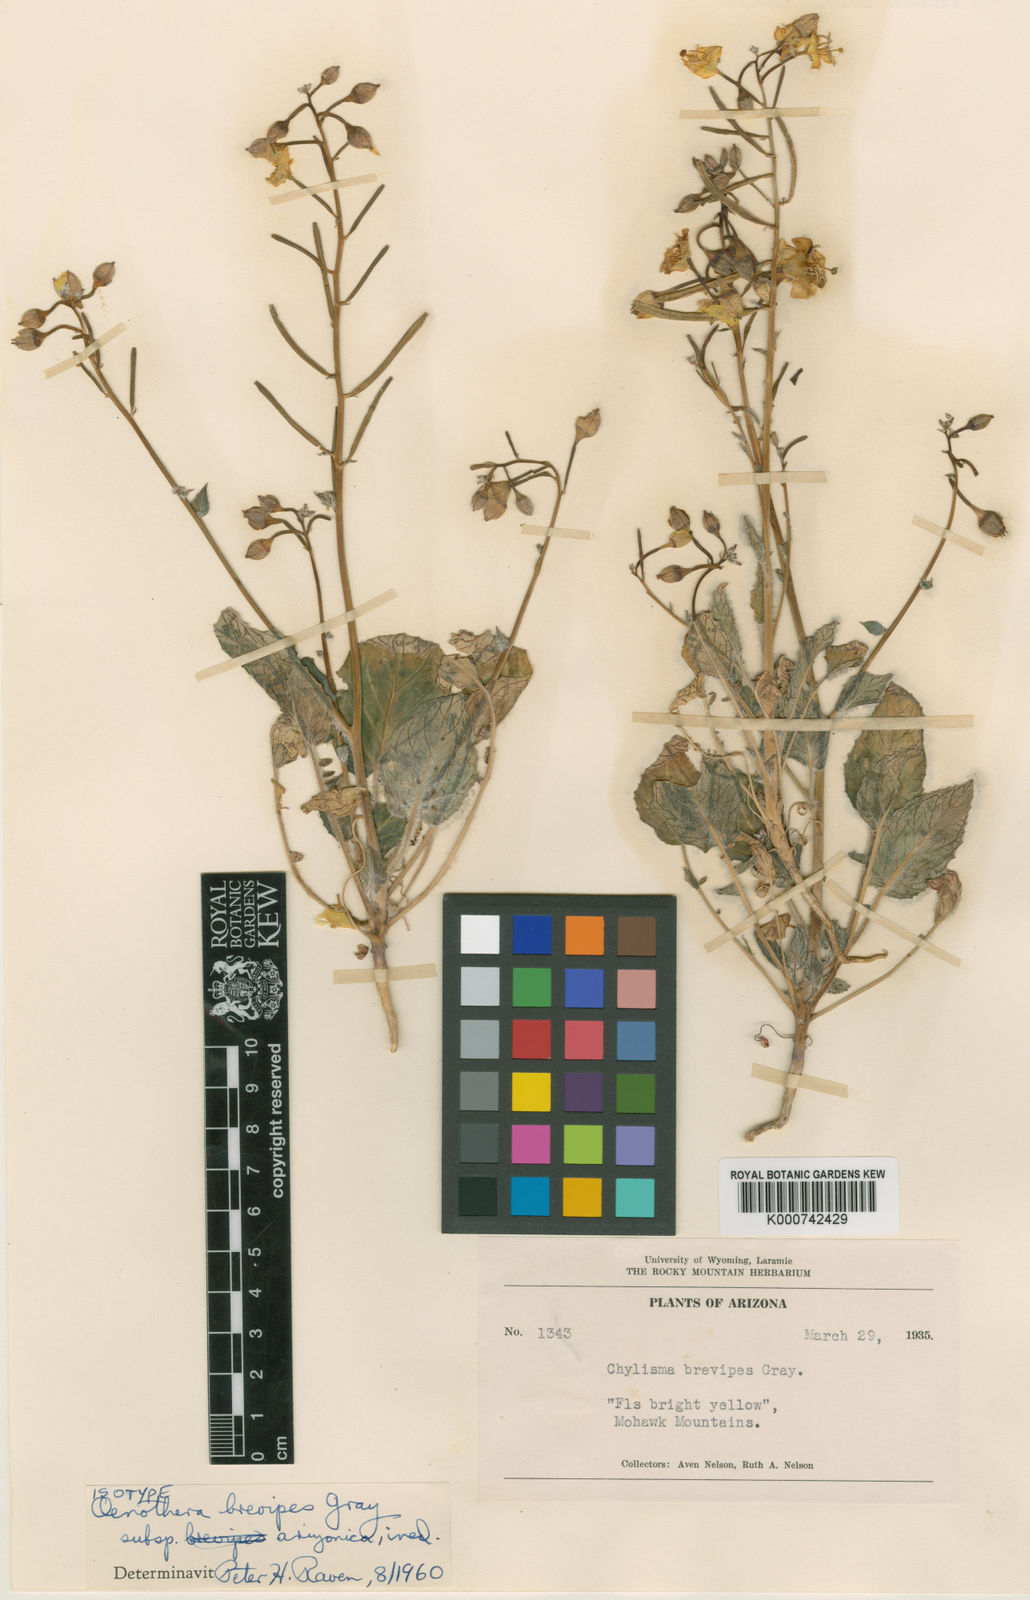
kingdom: Plantae
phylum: Tracheophyta
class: Magnoliopsida
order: Myrtales
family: Onagraceae
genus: Chylismia
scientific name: Chylismia brevipes
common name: Yellow cups
